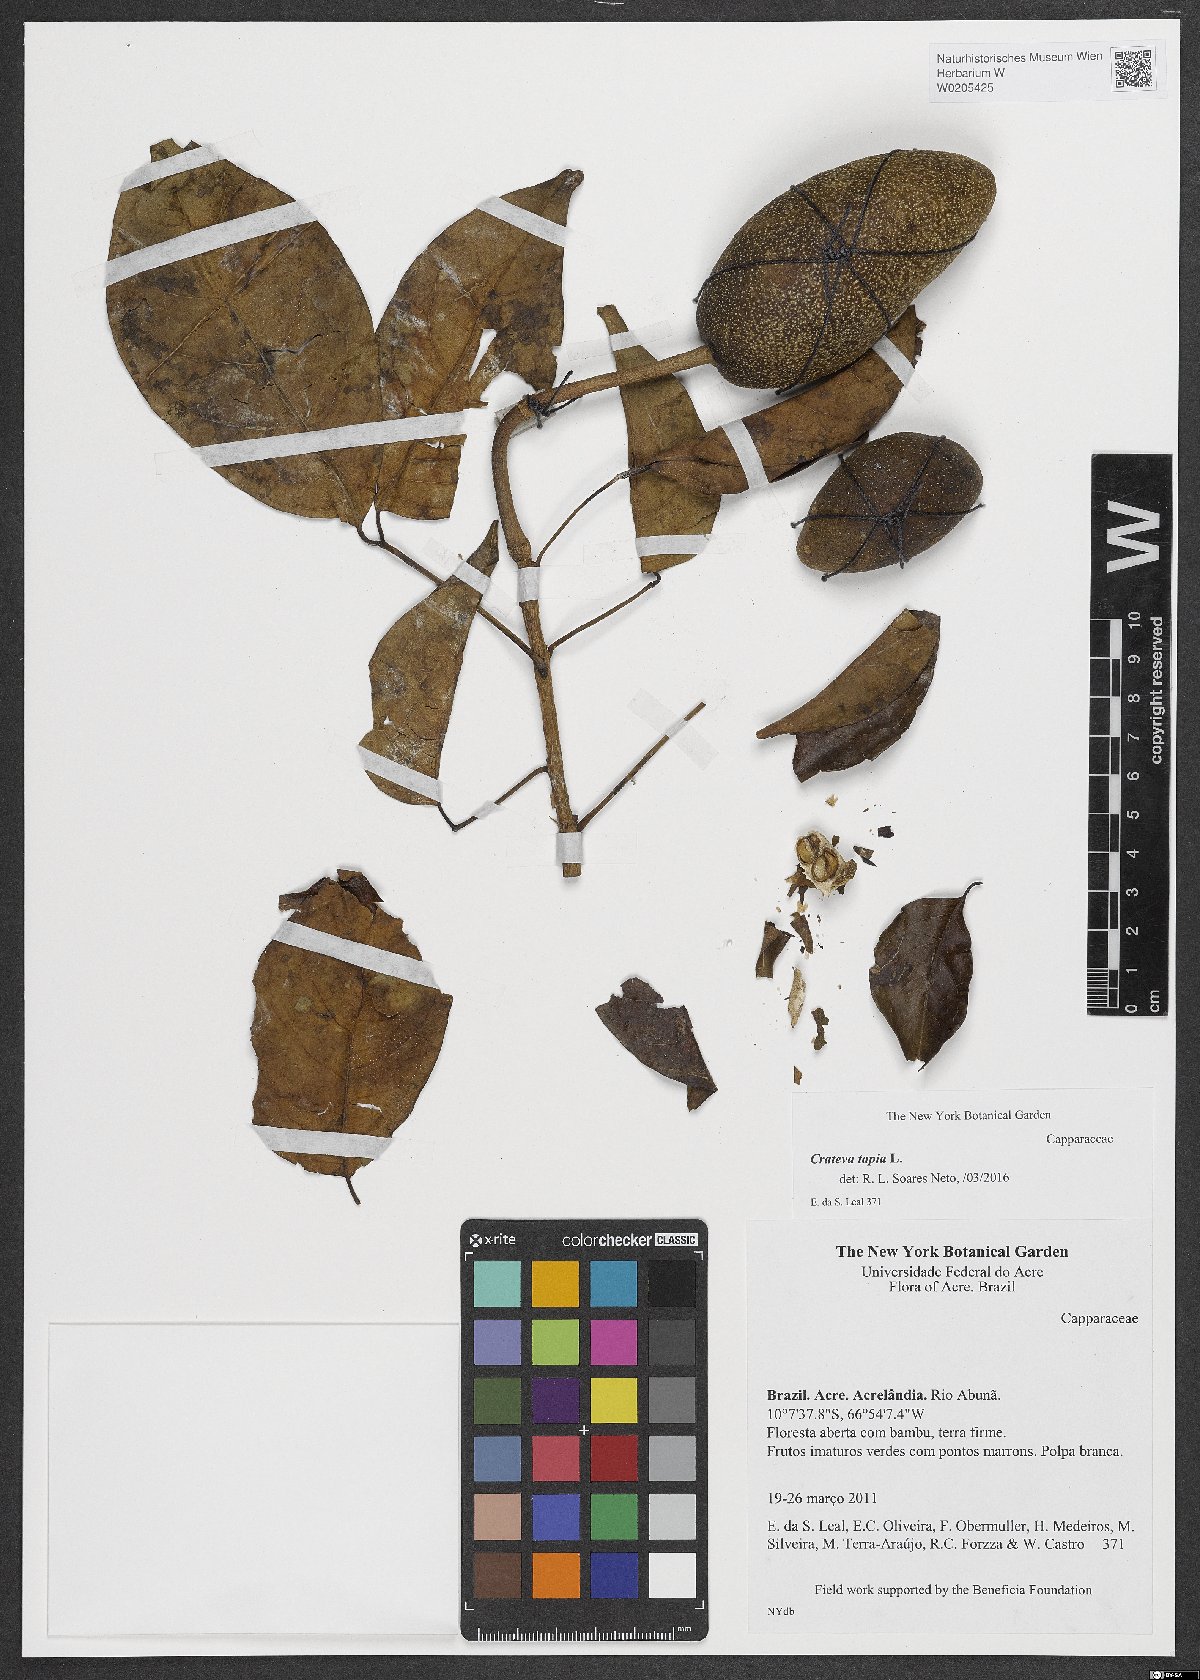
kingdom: Plantae
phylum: Tracheophyta
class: Magnoliopsida
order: Brassicales
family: Capparaceae
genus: Crateva
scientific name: Crateva tapia
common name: Garlic-pear
